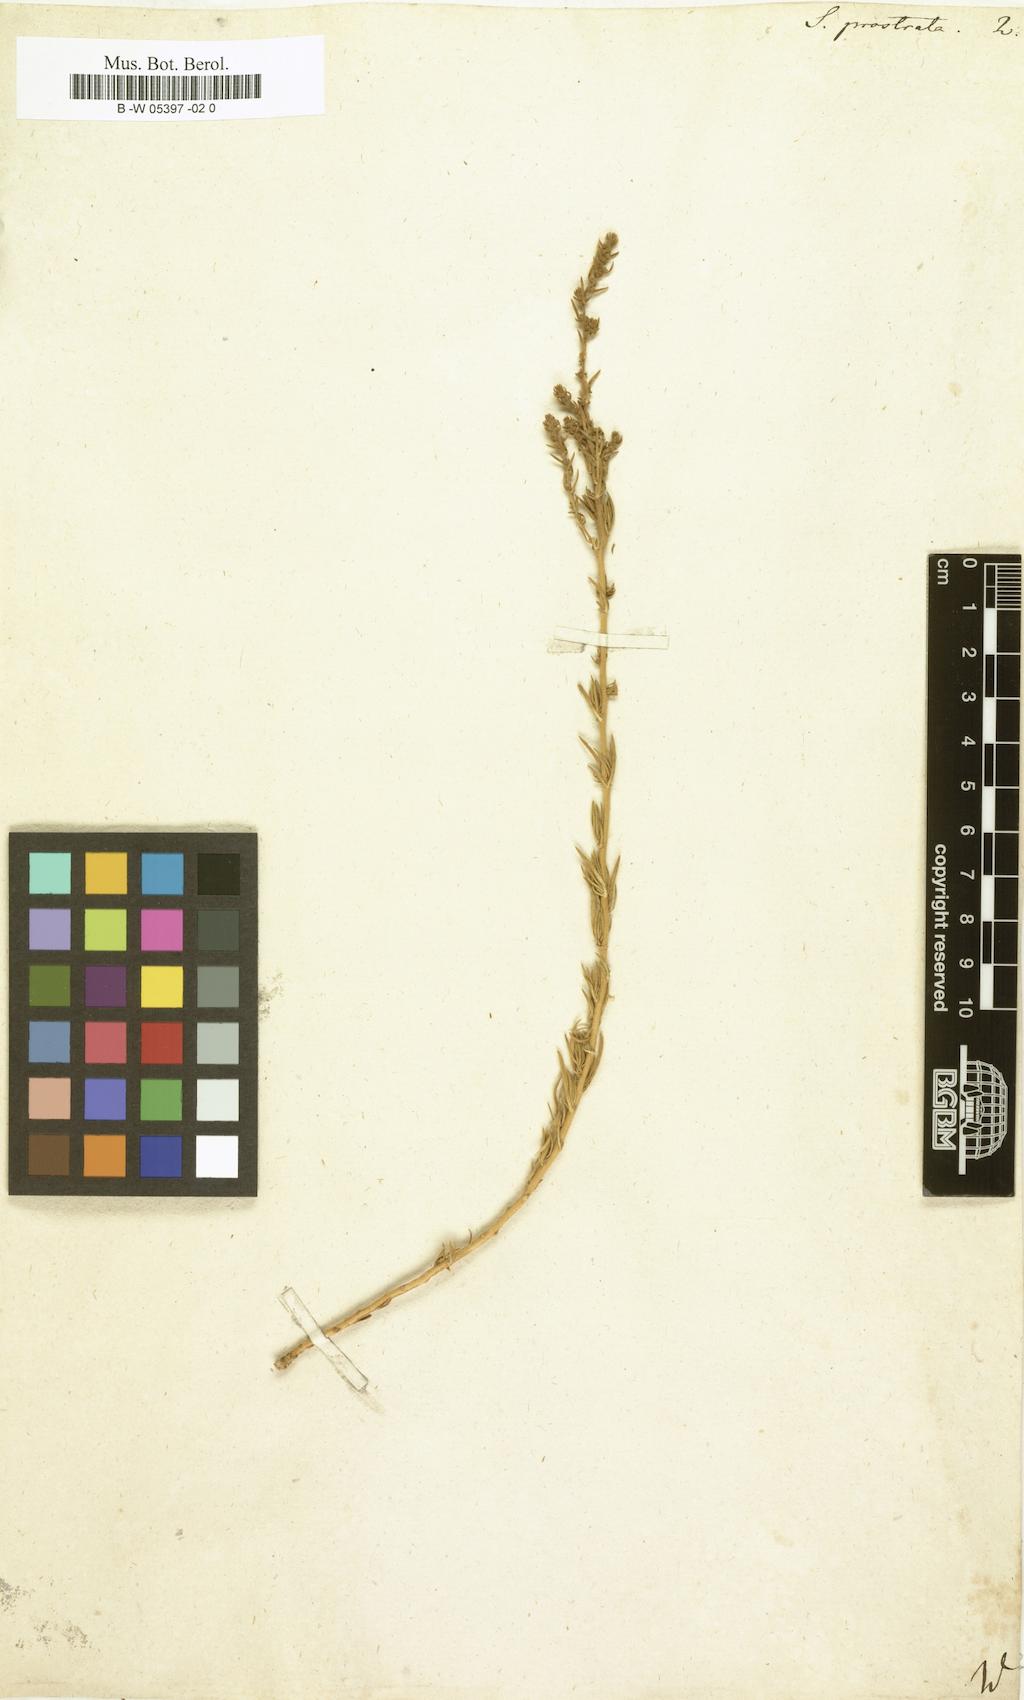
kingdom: Plantae
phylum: Tracheophyta
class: Magnoliopsida
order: Caryophyllales
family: Amaranthaceae
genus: Bassia
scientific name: Bassia
